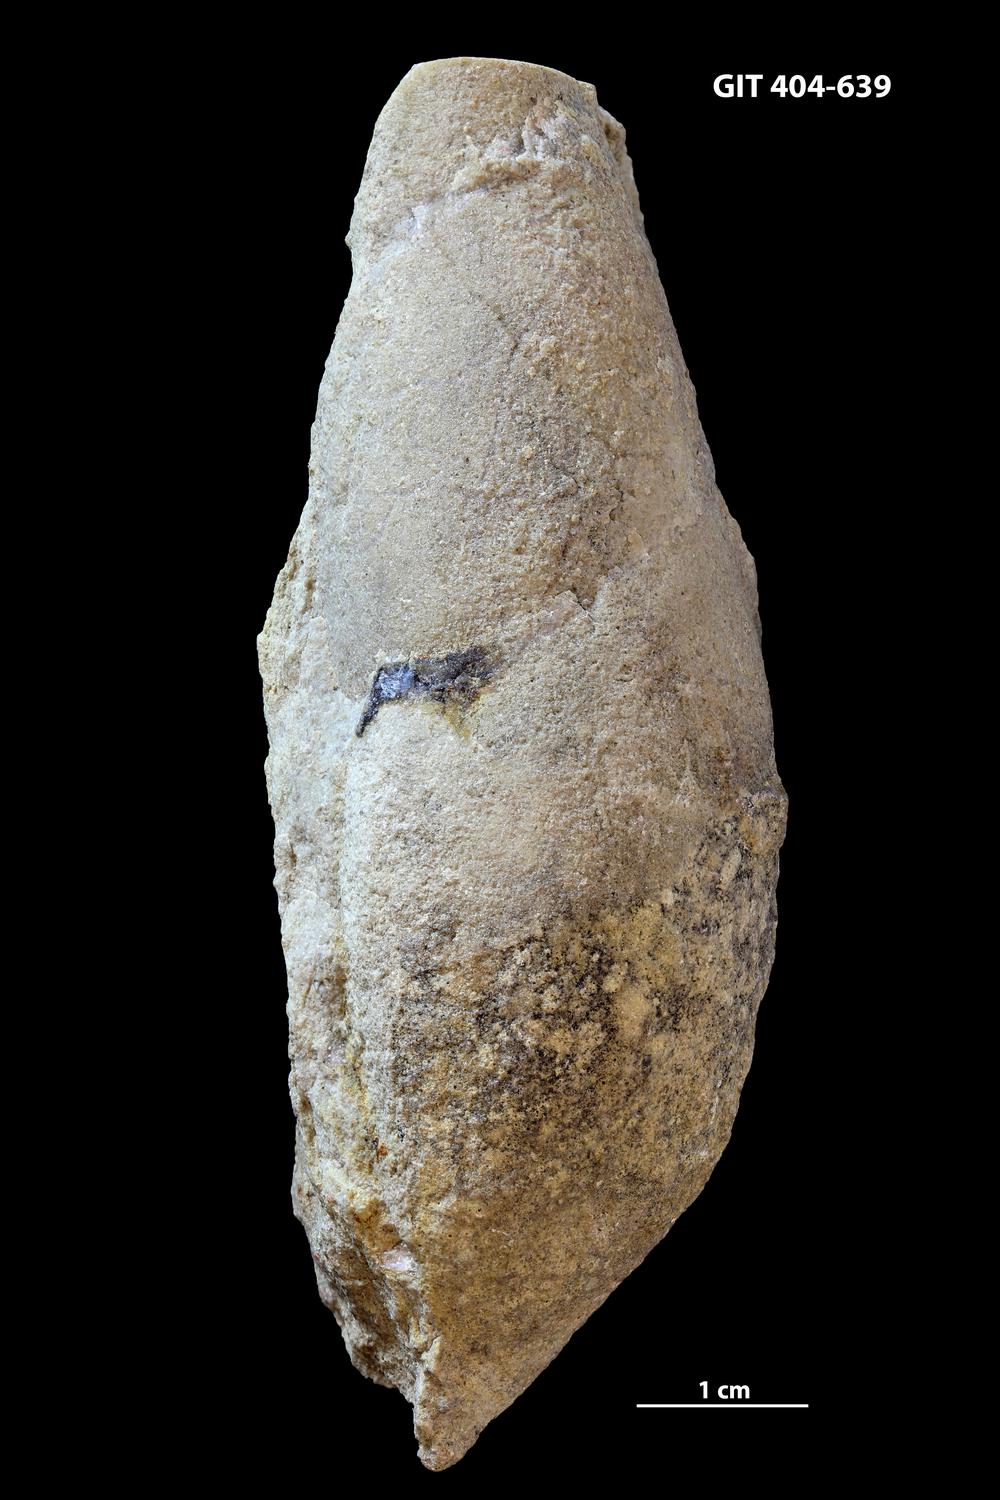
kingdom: Animalia
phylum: Mollusca
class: Gastropoda
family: Subulitidae
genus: Subulites
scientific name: Subulites
